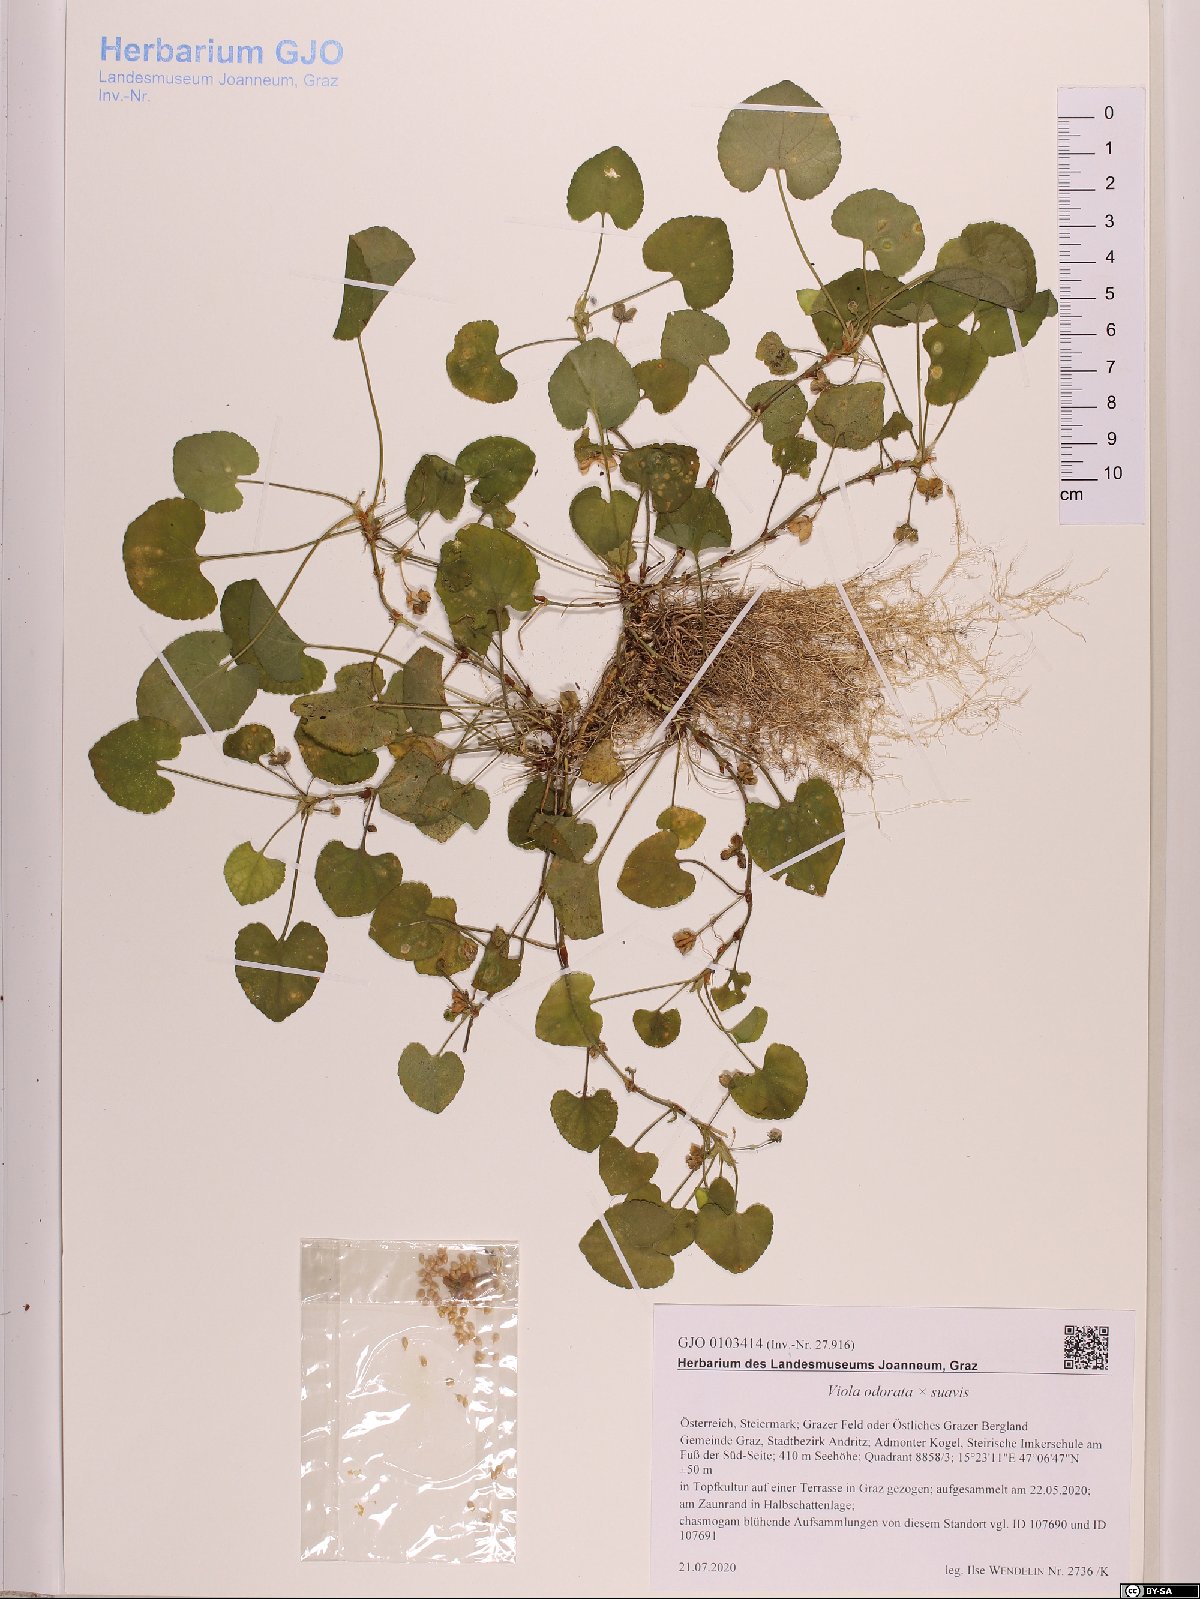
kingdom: Plantae
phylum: Tracheophyta
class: Magnoliopsida
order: Malpighiales
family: Violaceae
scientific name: Violaceae
